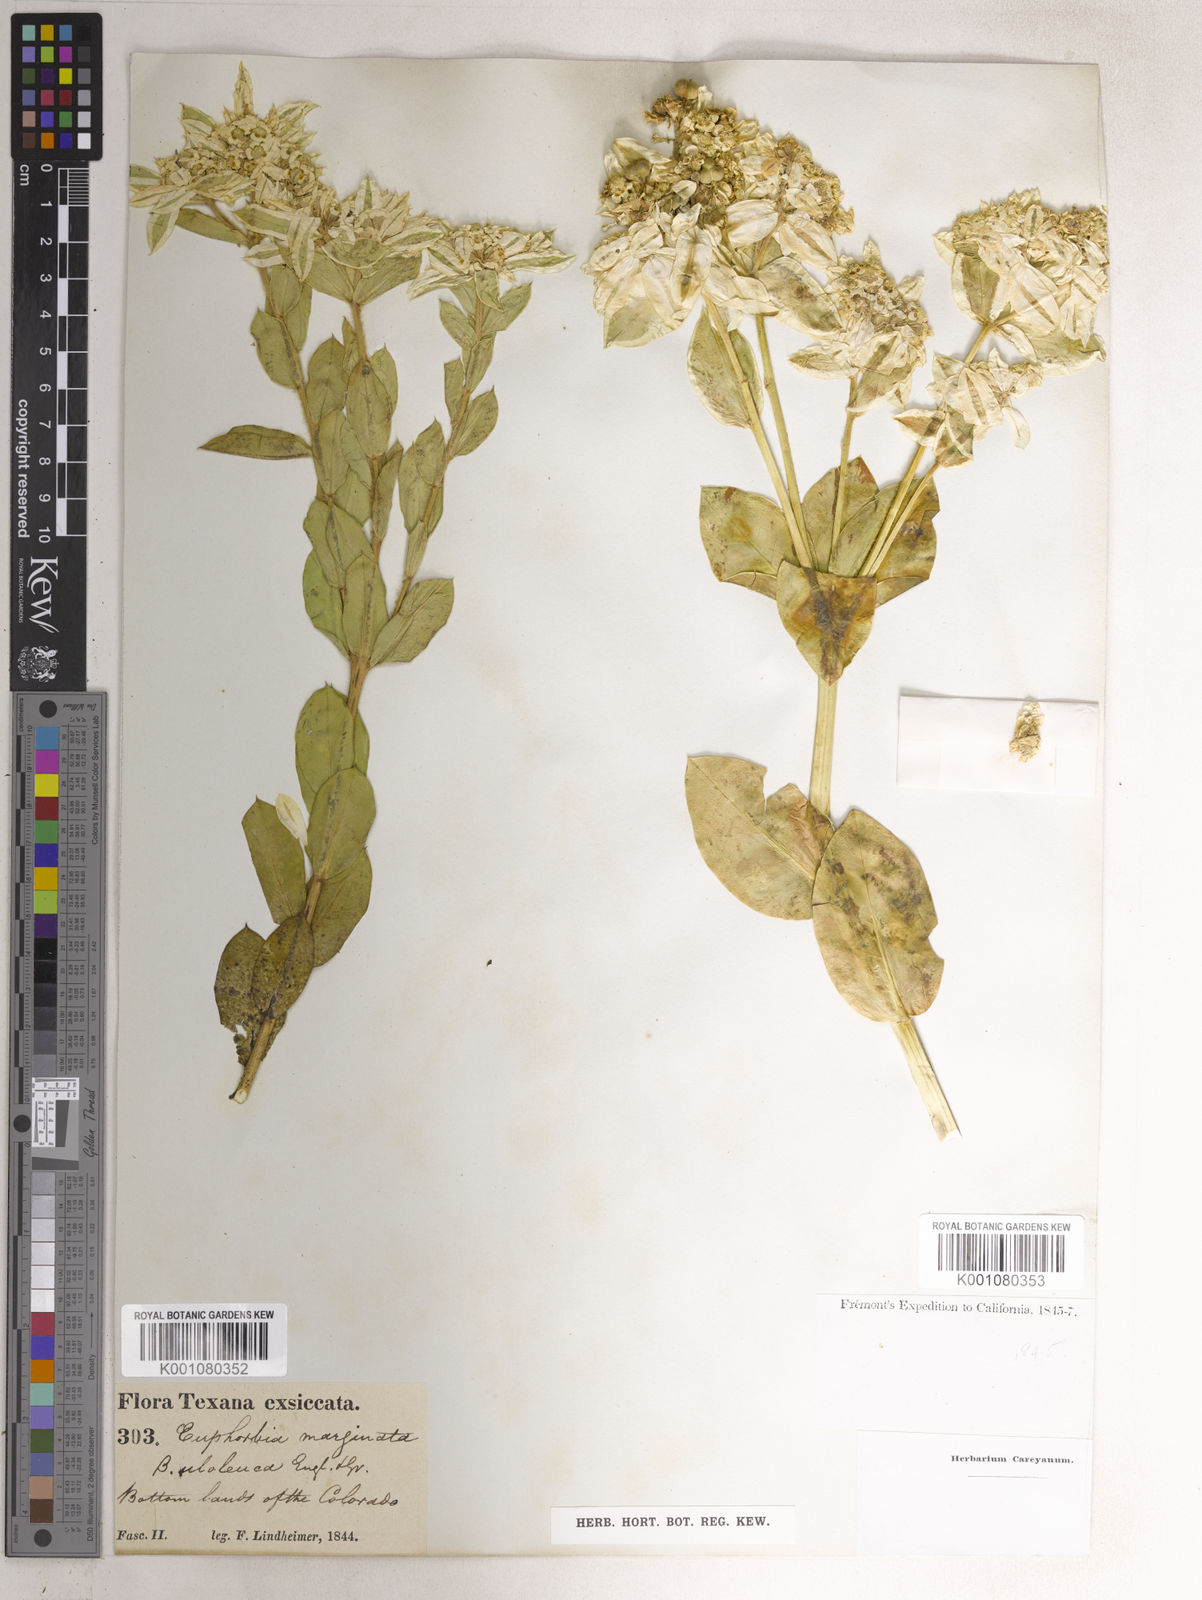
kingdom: Plantae
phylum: Tracheophyta
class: Magnoliopsida
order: Malpighiales
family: Euphorbiaceae
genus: Euphorbia
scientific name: Euphorbia marginata
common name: Ghostweed
